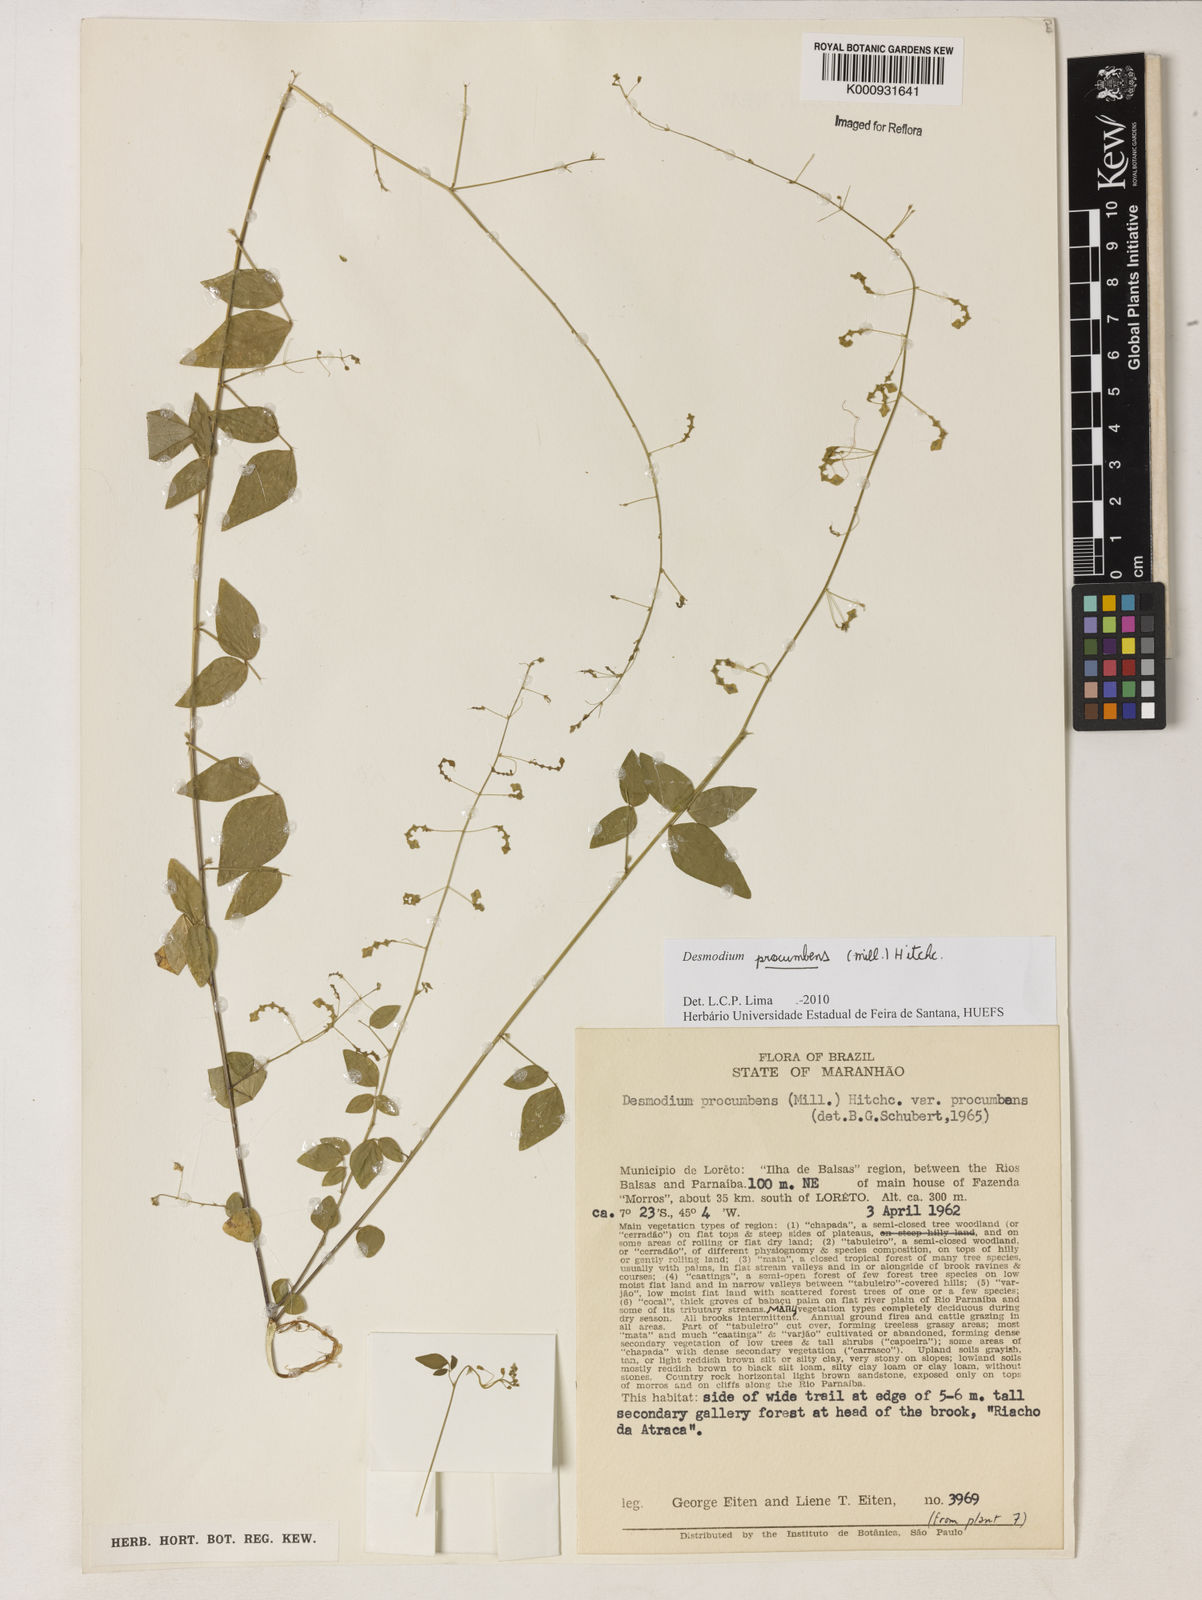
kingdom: Plantae
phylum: Tracheophyta
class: Magnoliopsida
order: Fabales
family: Fabaceae
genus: Desmodium
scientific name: Desmodium procumbens
